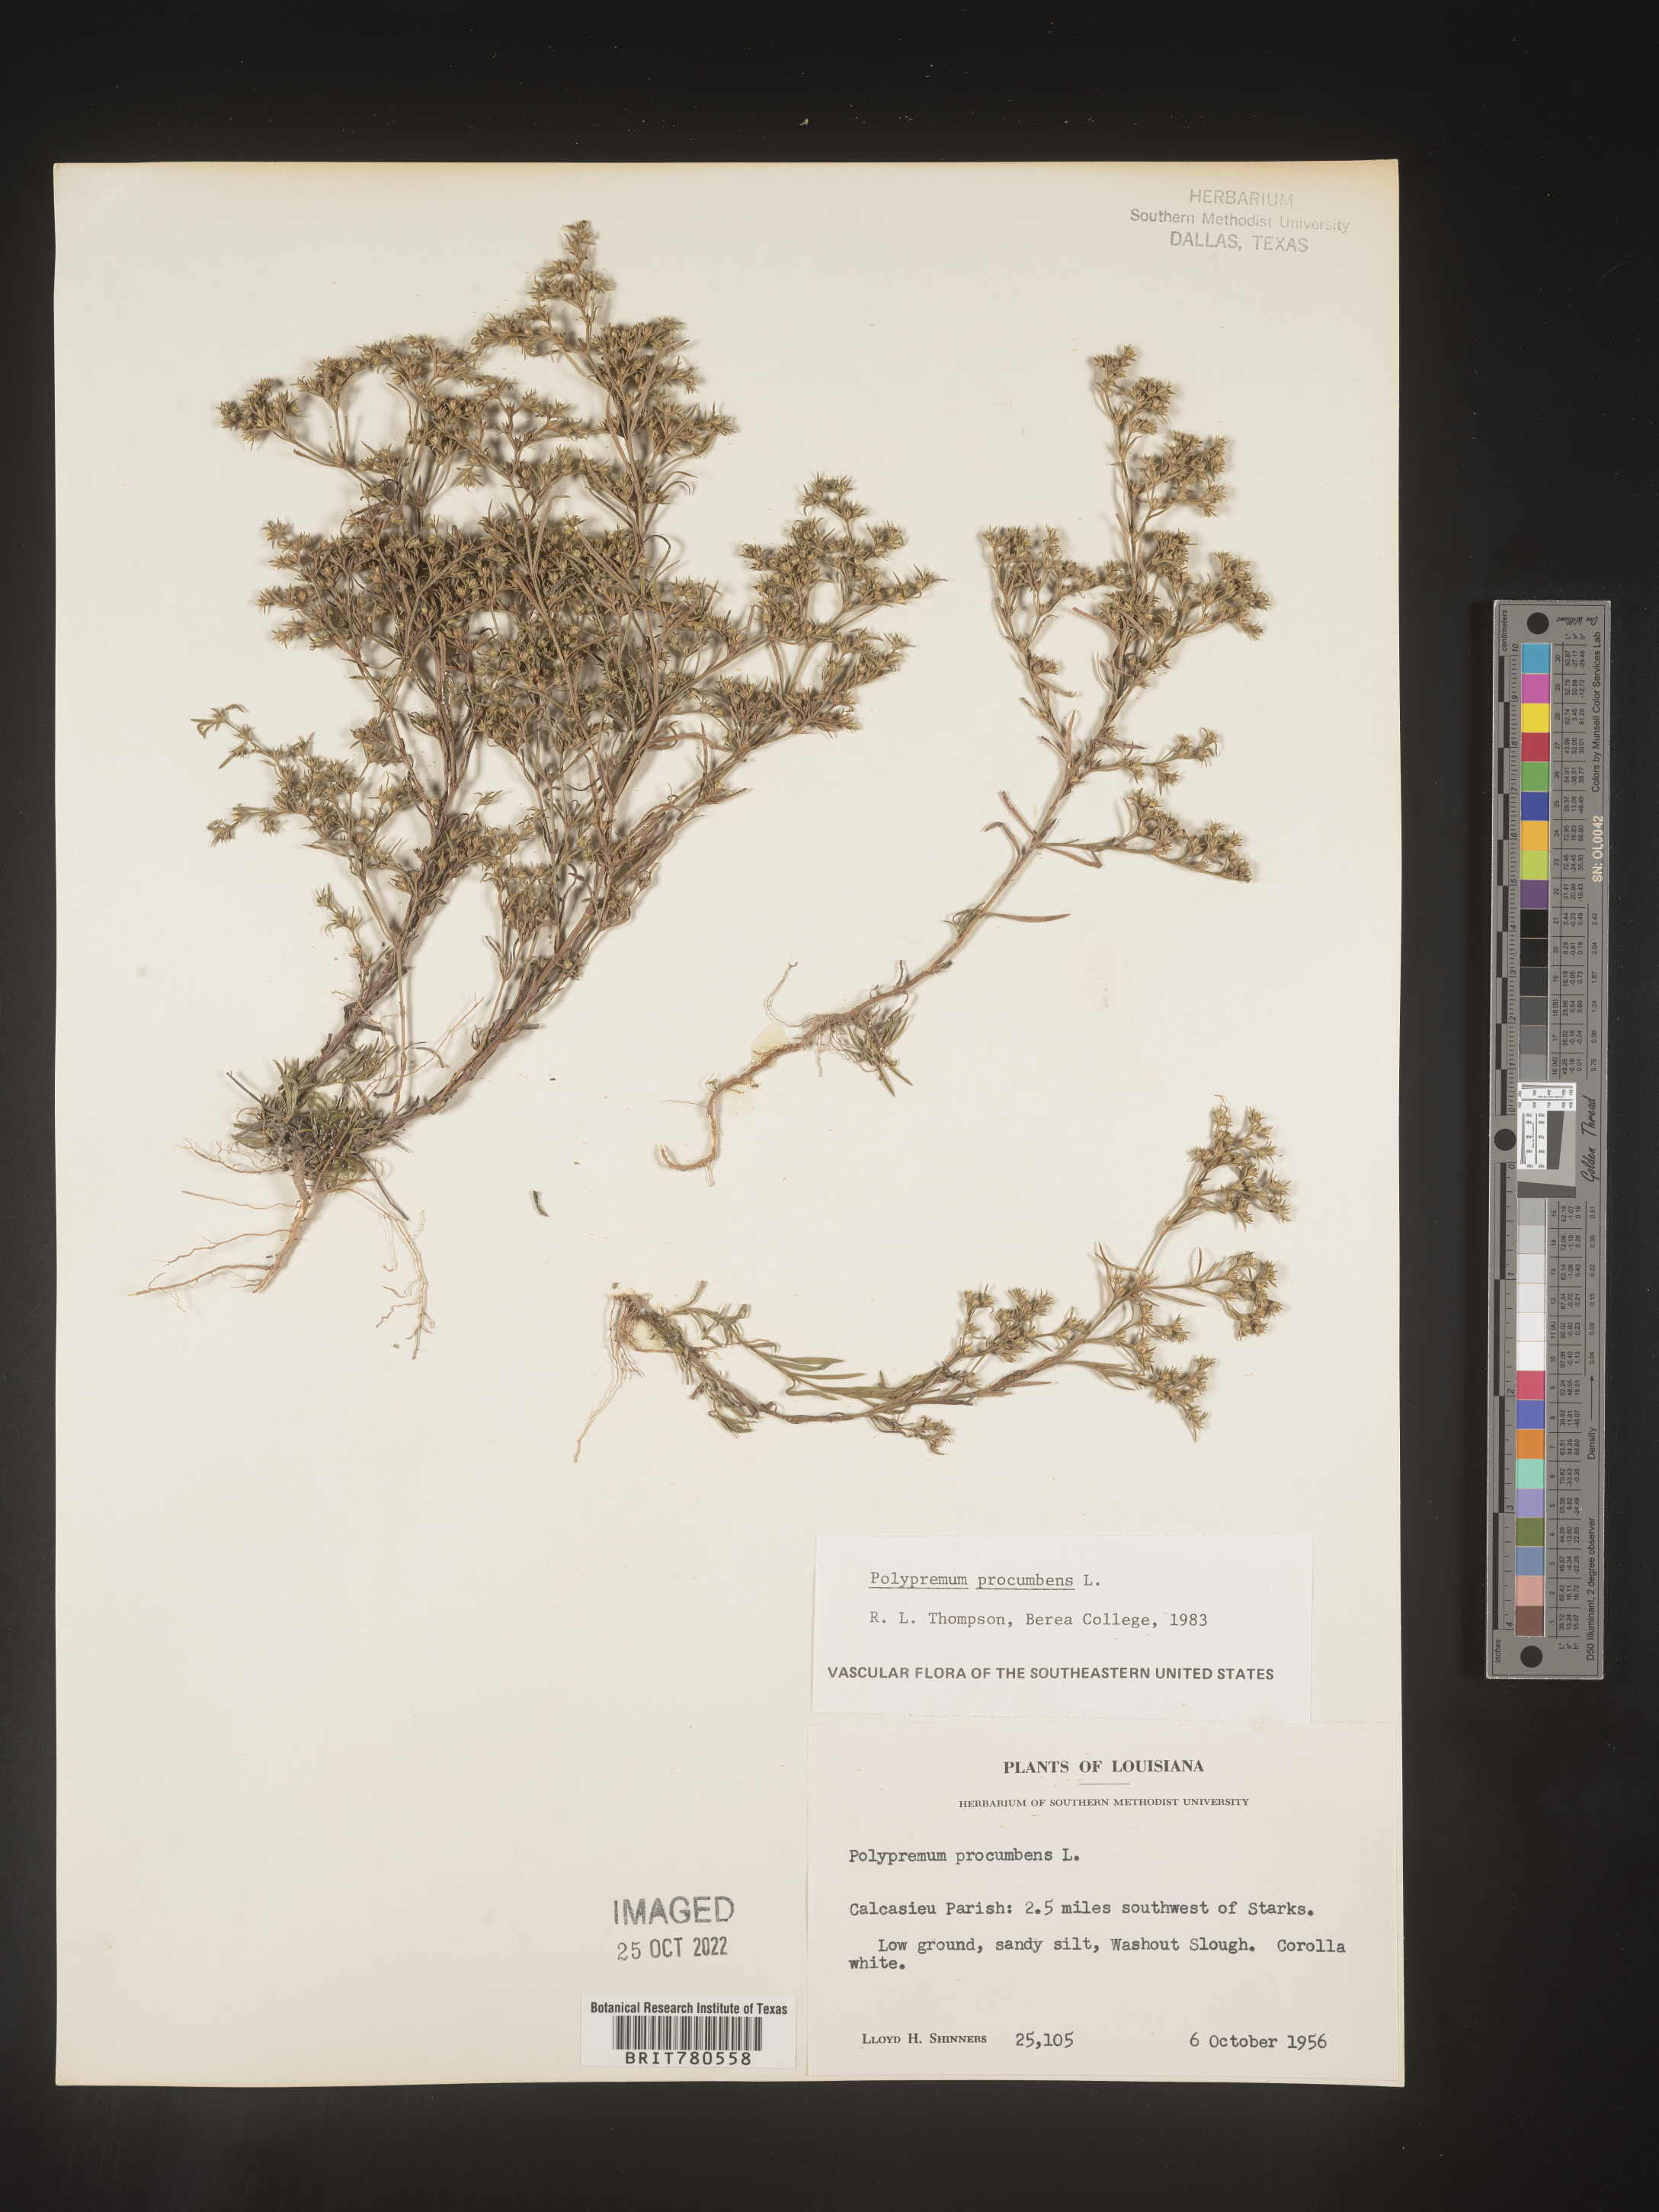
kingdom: Plantae
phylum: Tracheophyta
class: Magnoliopsida
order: Lamiales
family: Tetrachondraceae
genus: Polypremum
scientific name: Polypremum procumbens
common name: Juniper-leaf
